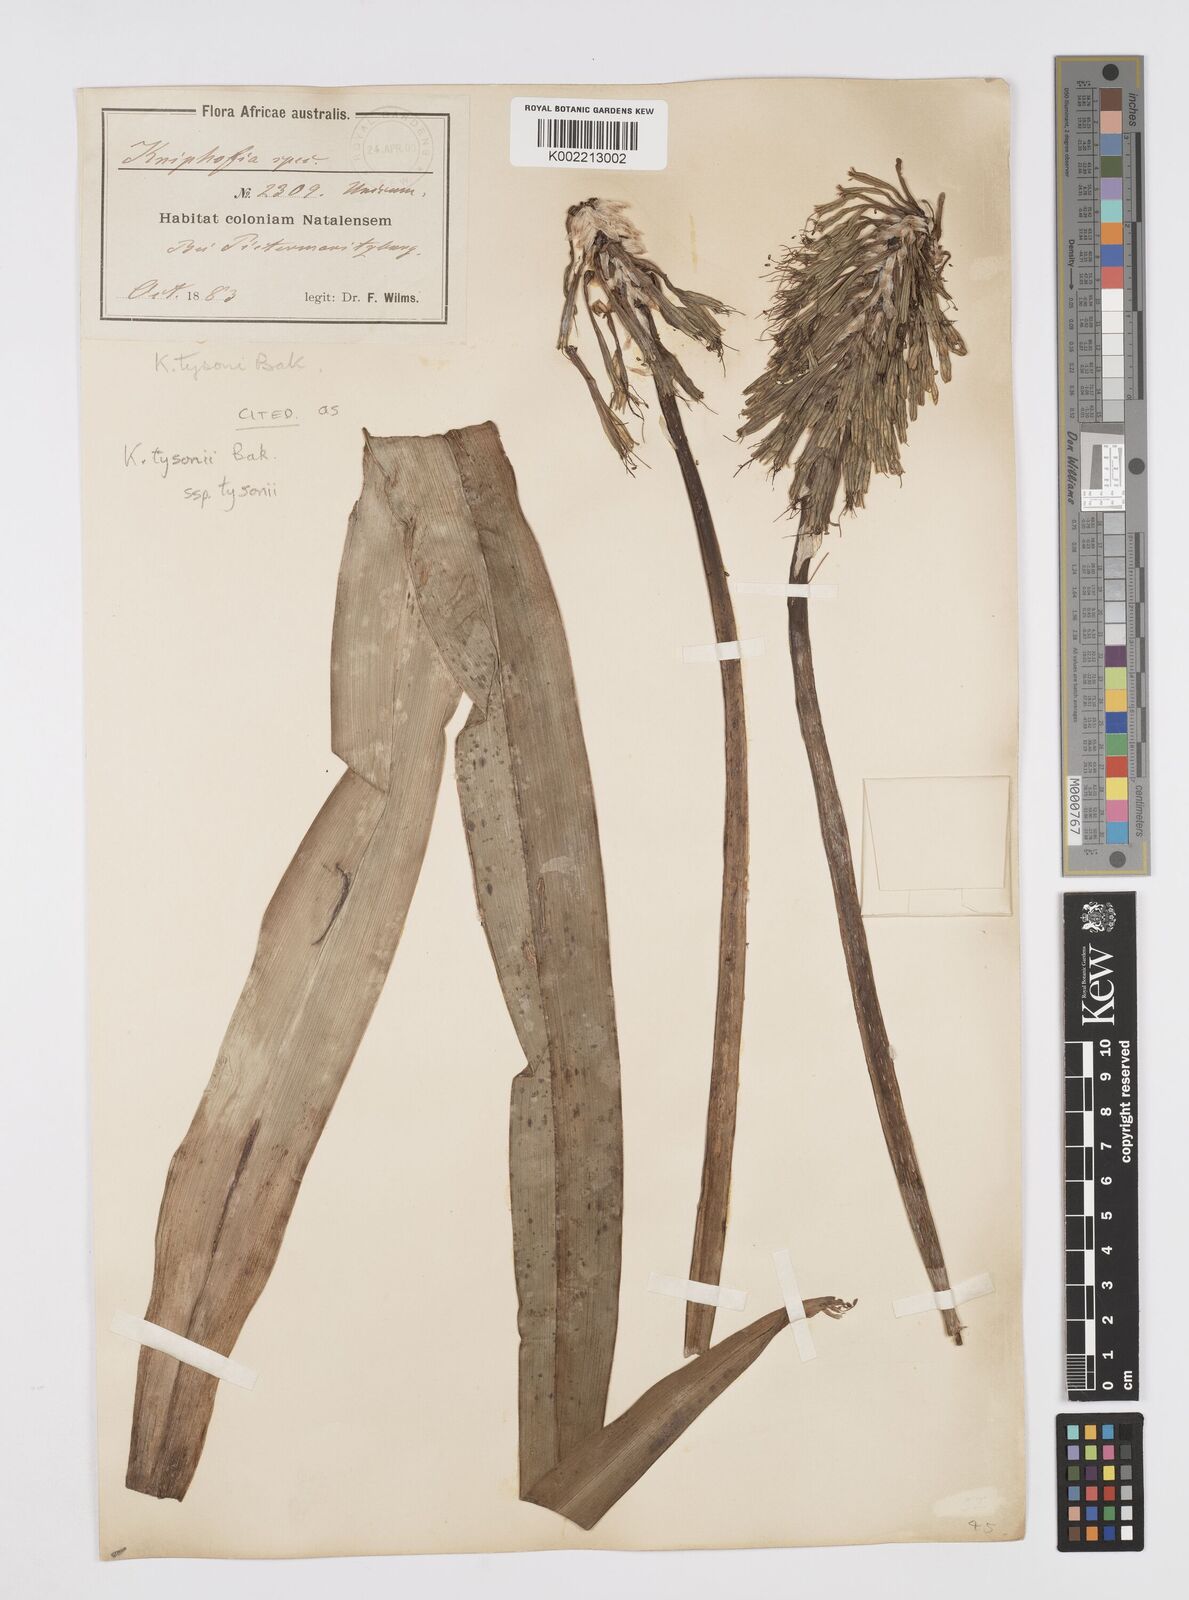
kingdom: Plantae
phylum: Tracheophyta
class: Liliopsida
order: Asparagales
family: Asphodelaceae
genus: Kniphofia
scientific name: Kniphofia tysonii
